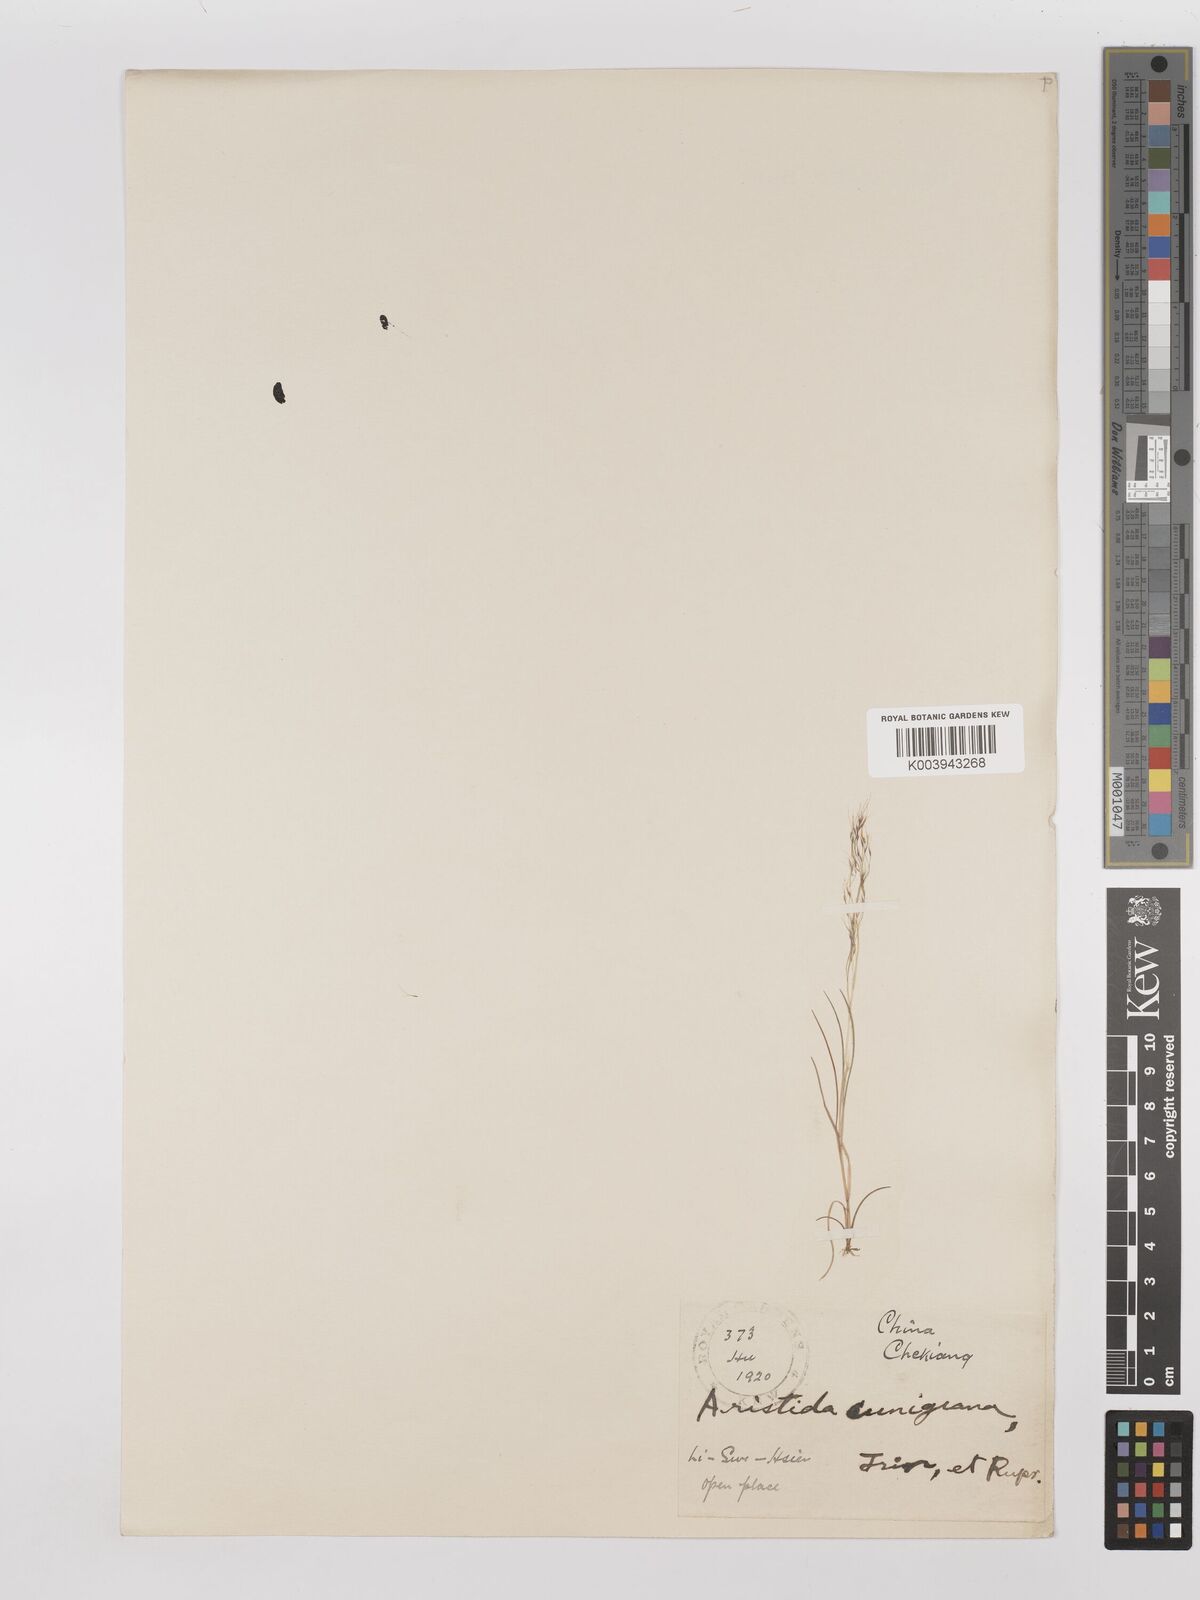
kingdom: Plantae
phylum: Tracheophyta
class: Liliopsida
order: Poales
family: Poaceae
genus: Aristida
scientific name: Aristida cumingiana
